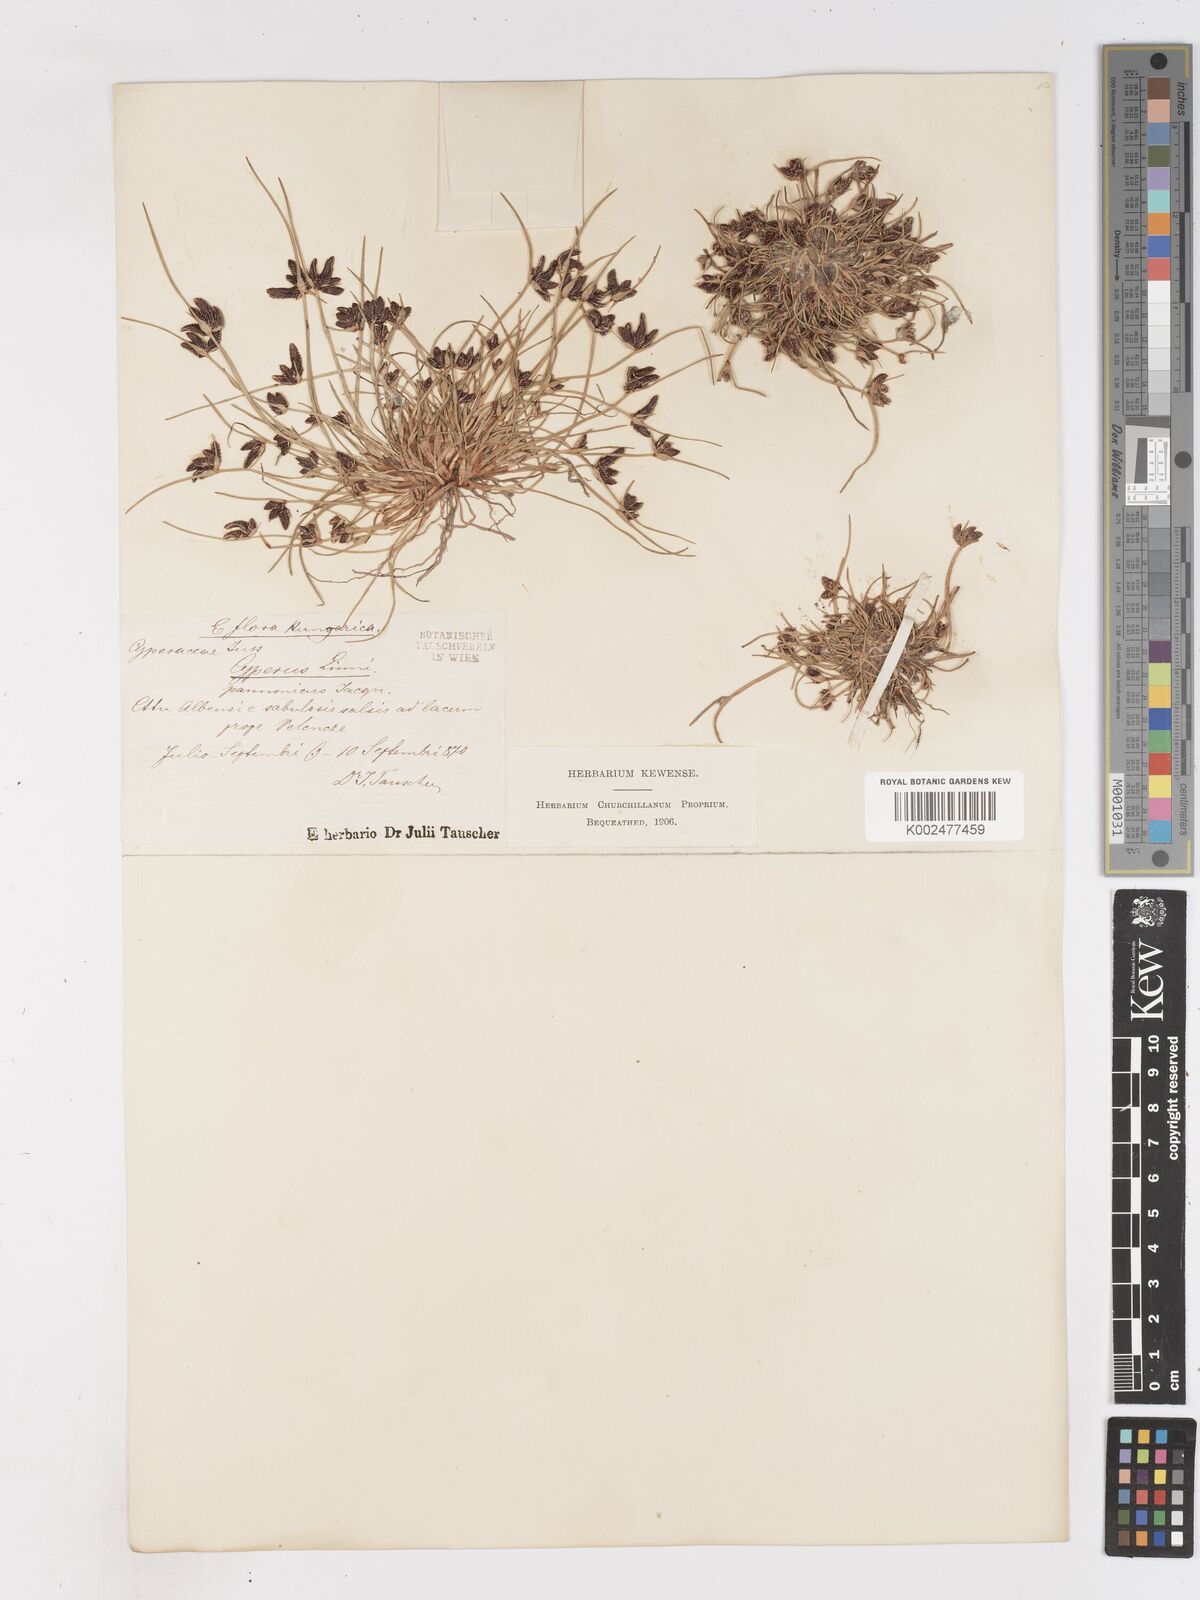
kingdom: Plantae
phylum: Tracheophyta
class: Liliopsida
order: Poales
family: Cyperaceae
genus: Cyperus
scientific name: Cyperus pannonicus
